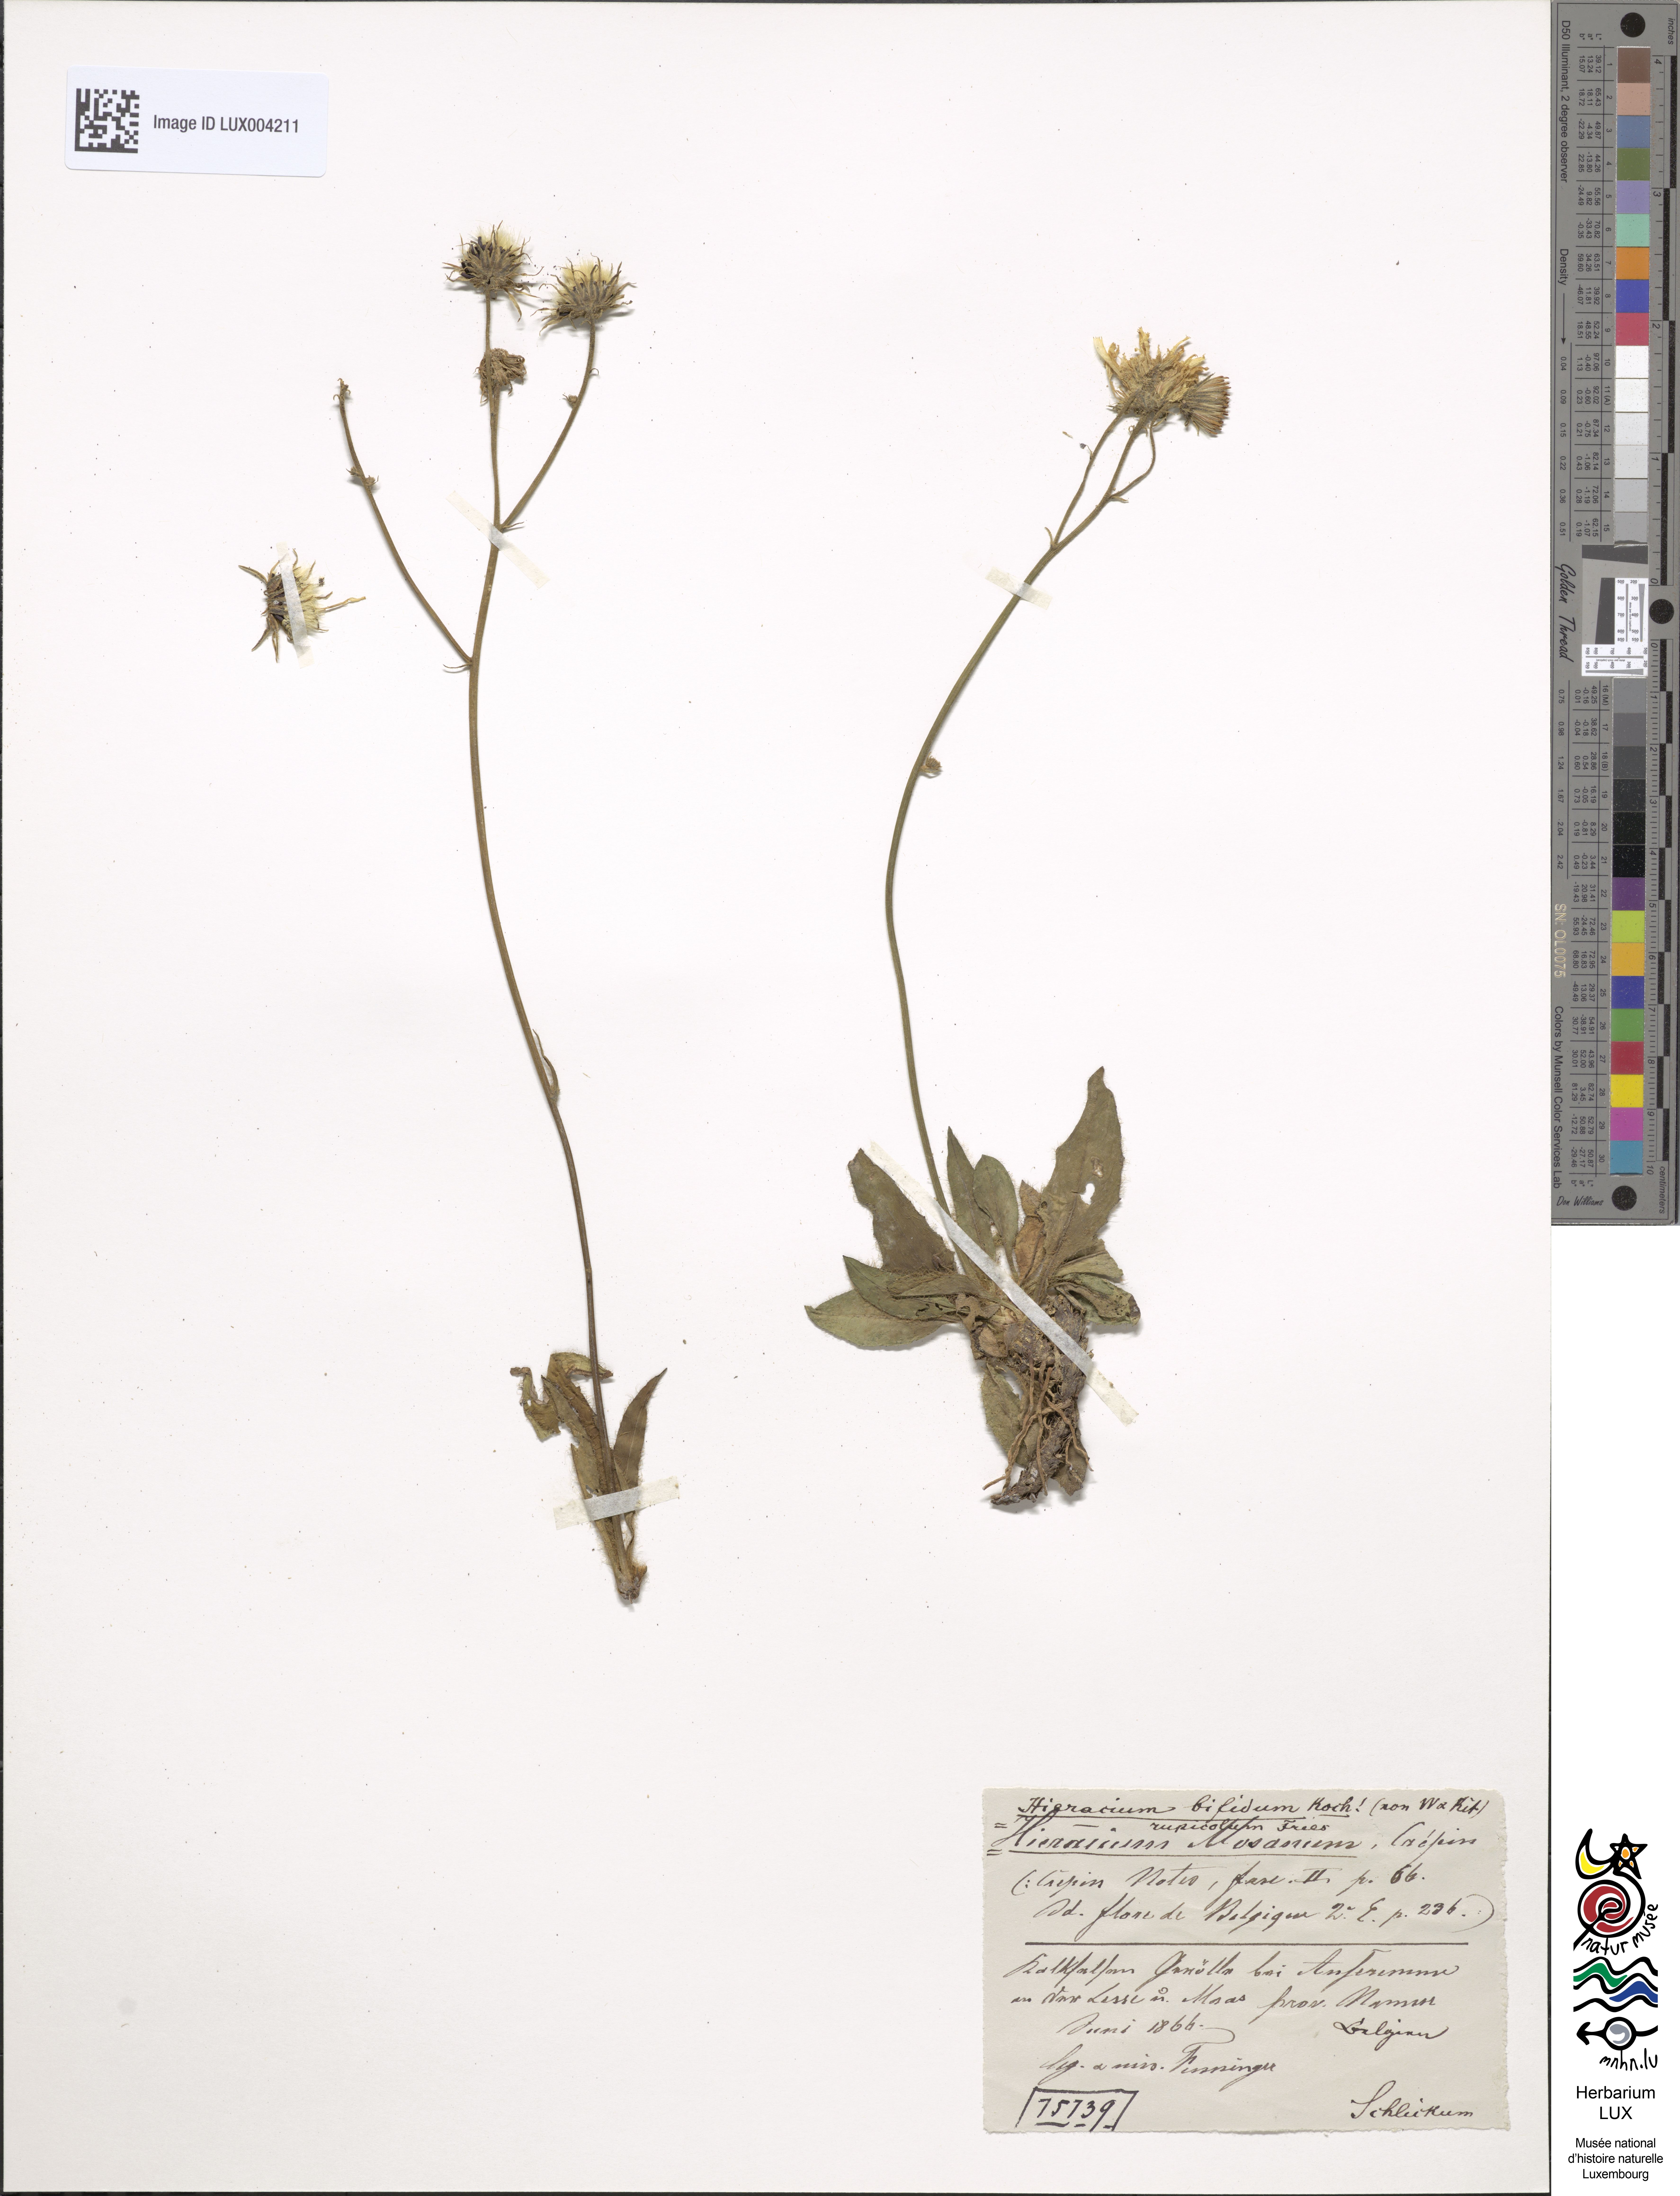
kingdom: Plantae
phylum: Tracheophyta
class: Magnoliopsida
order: Asterales
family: Asteraceae
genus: Hieracium
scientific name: Hieracium glaucinum
